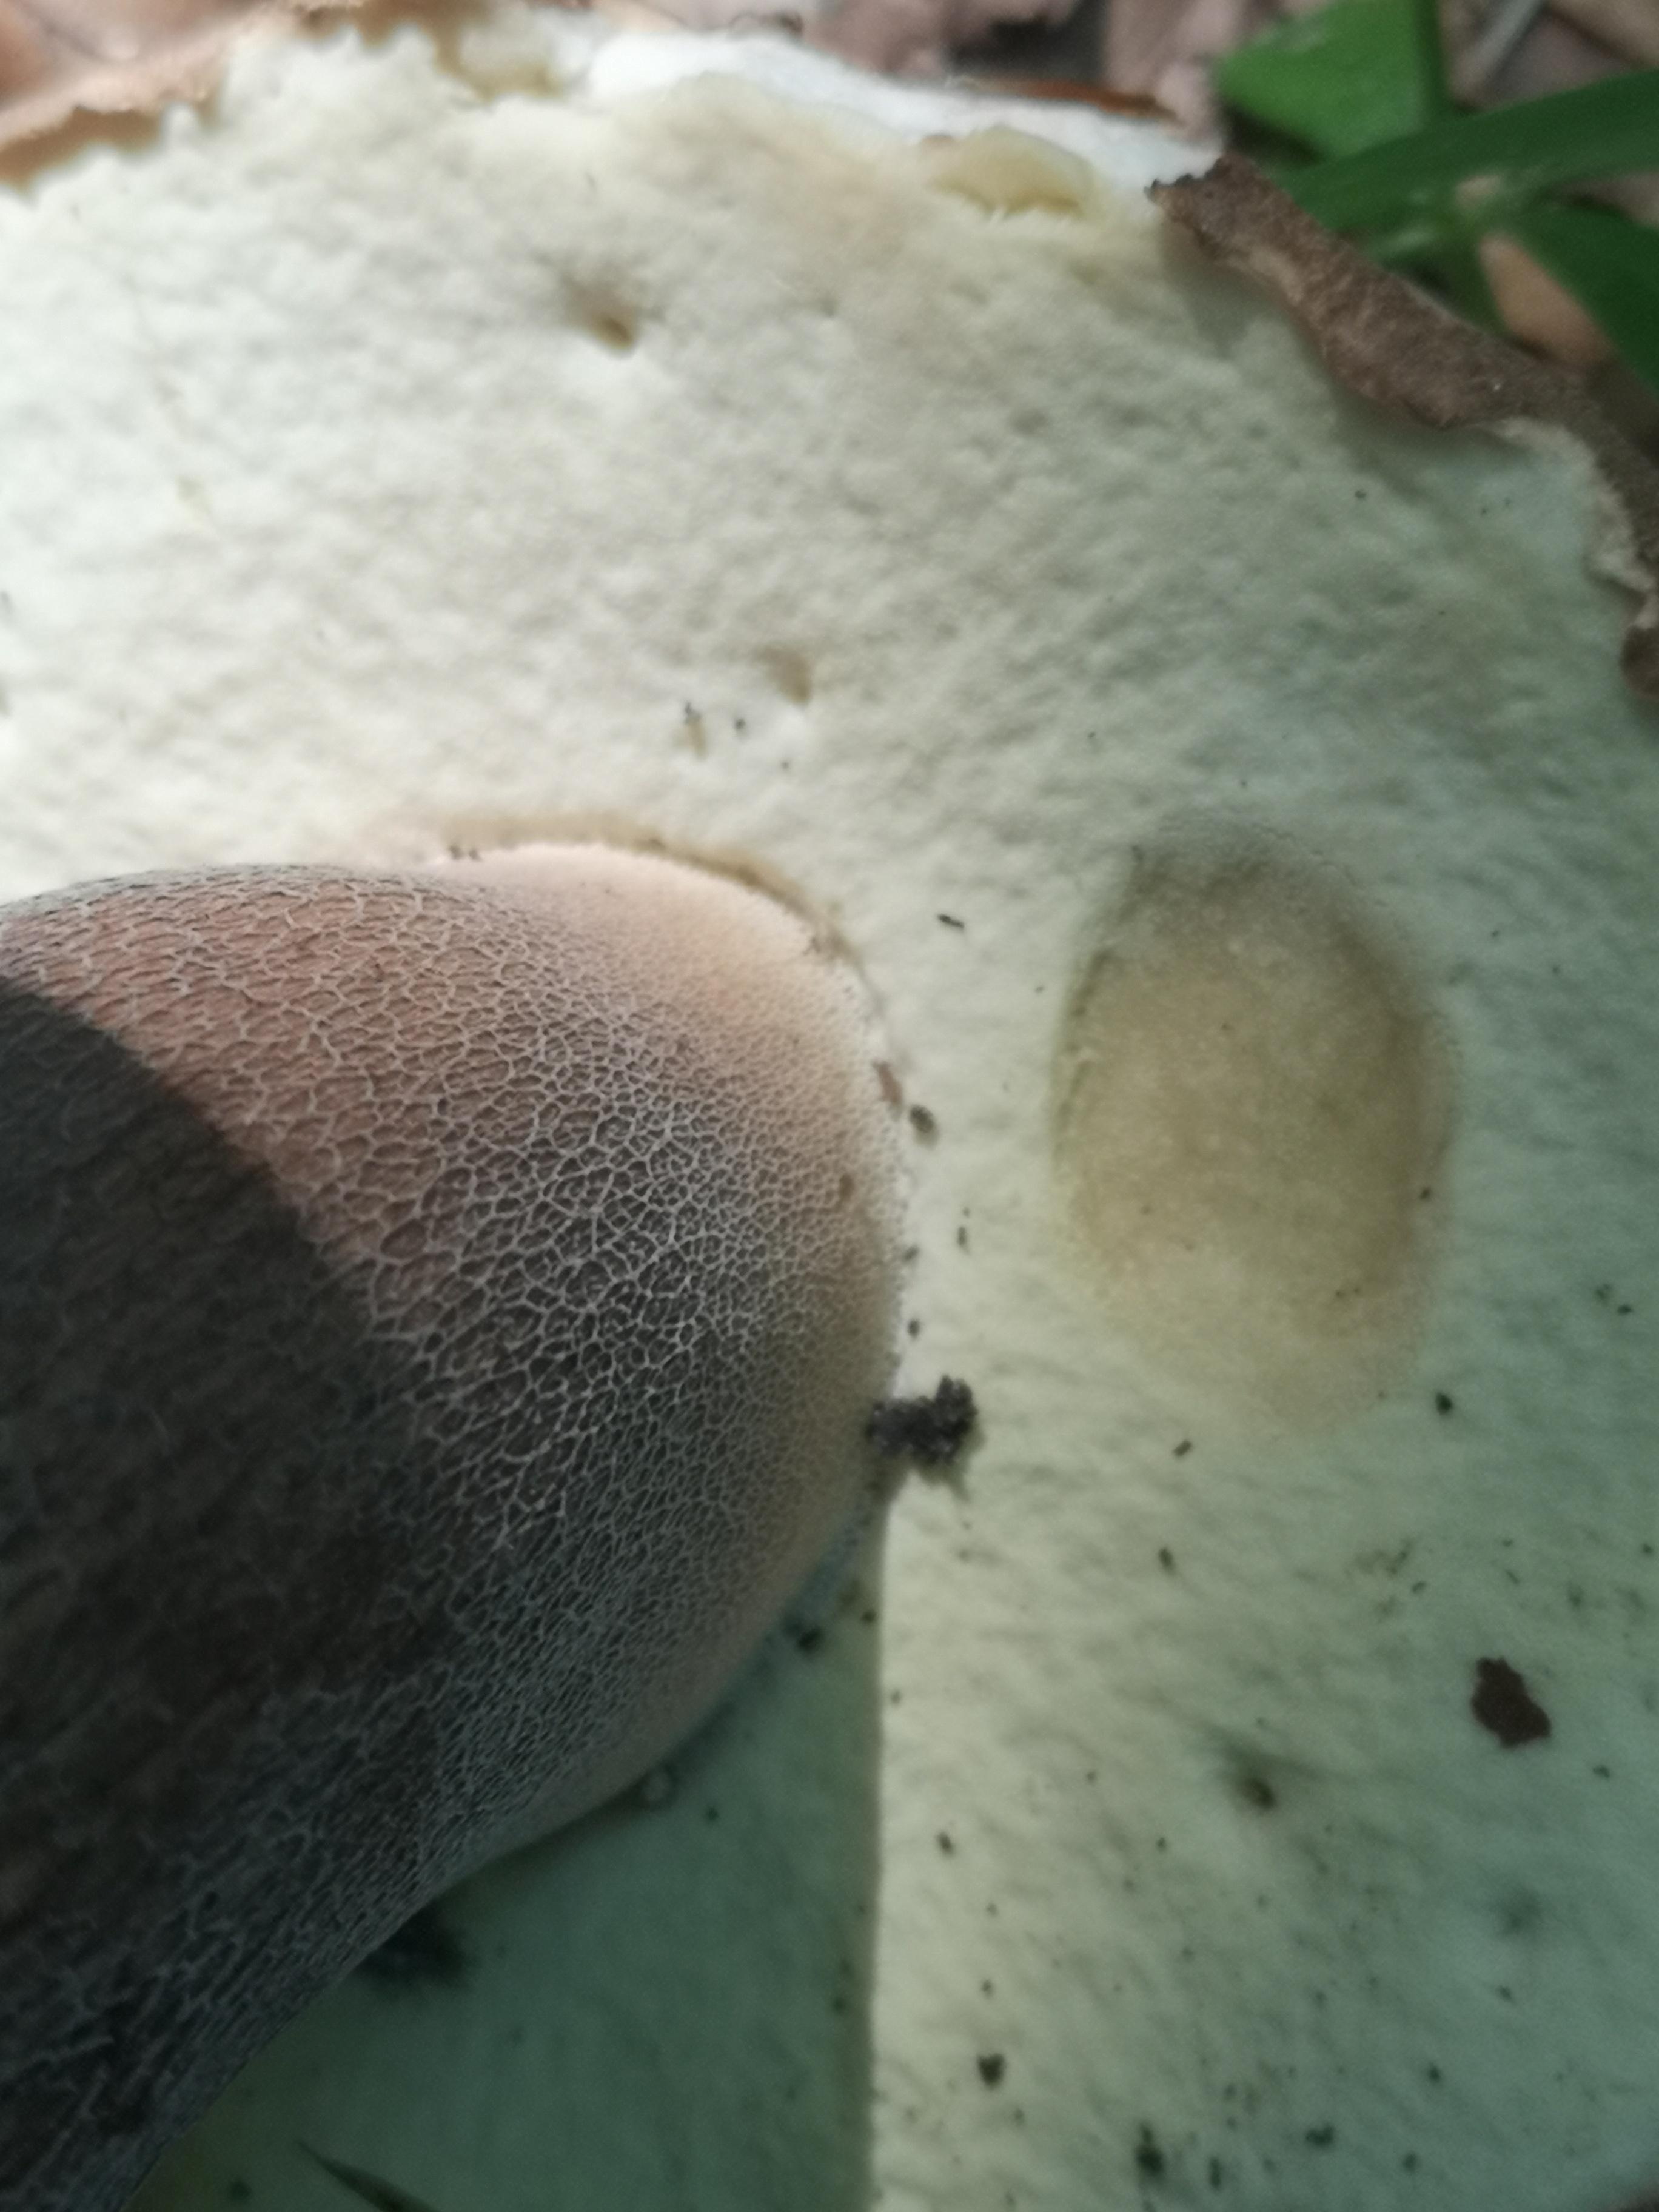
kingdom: Fungi
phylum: Basidiomycota
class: Agaricomycetes
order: Boletales
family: Boletaceae
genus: Boletus
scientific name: Boletus reticulatus
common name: sommer-rørhat
